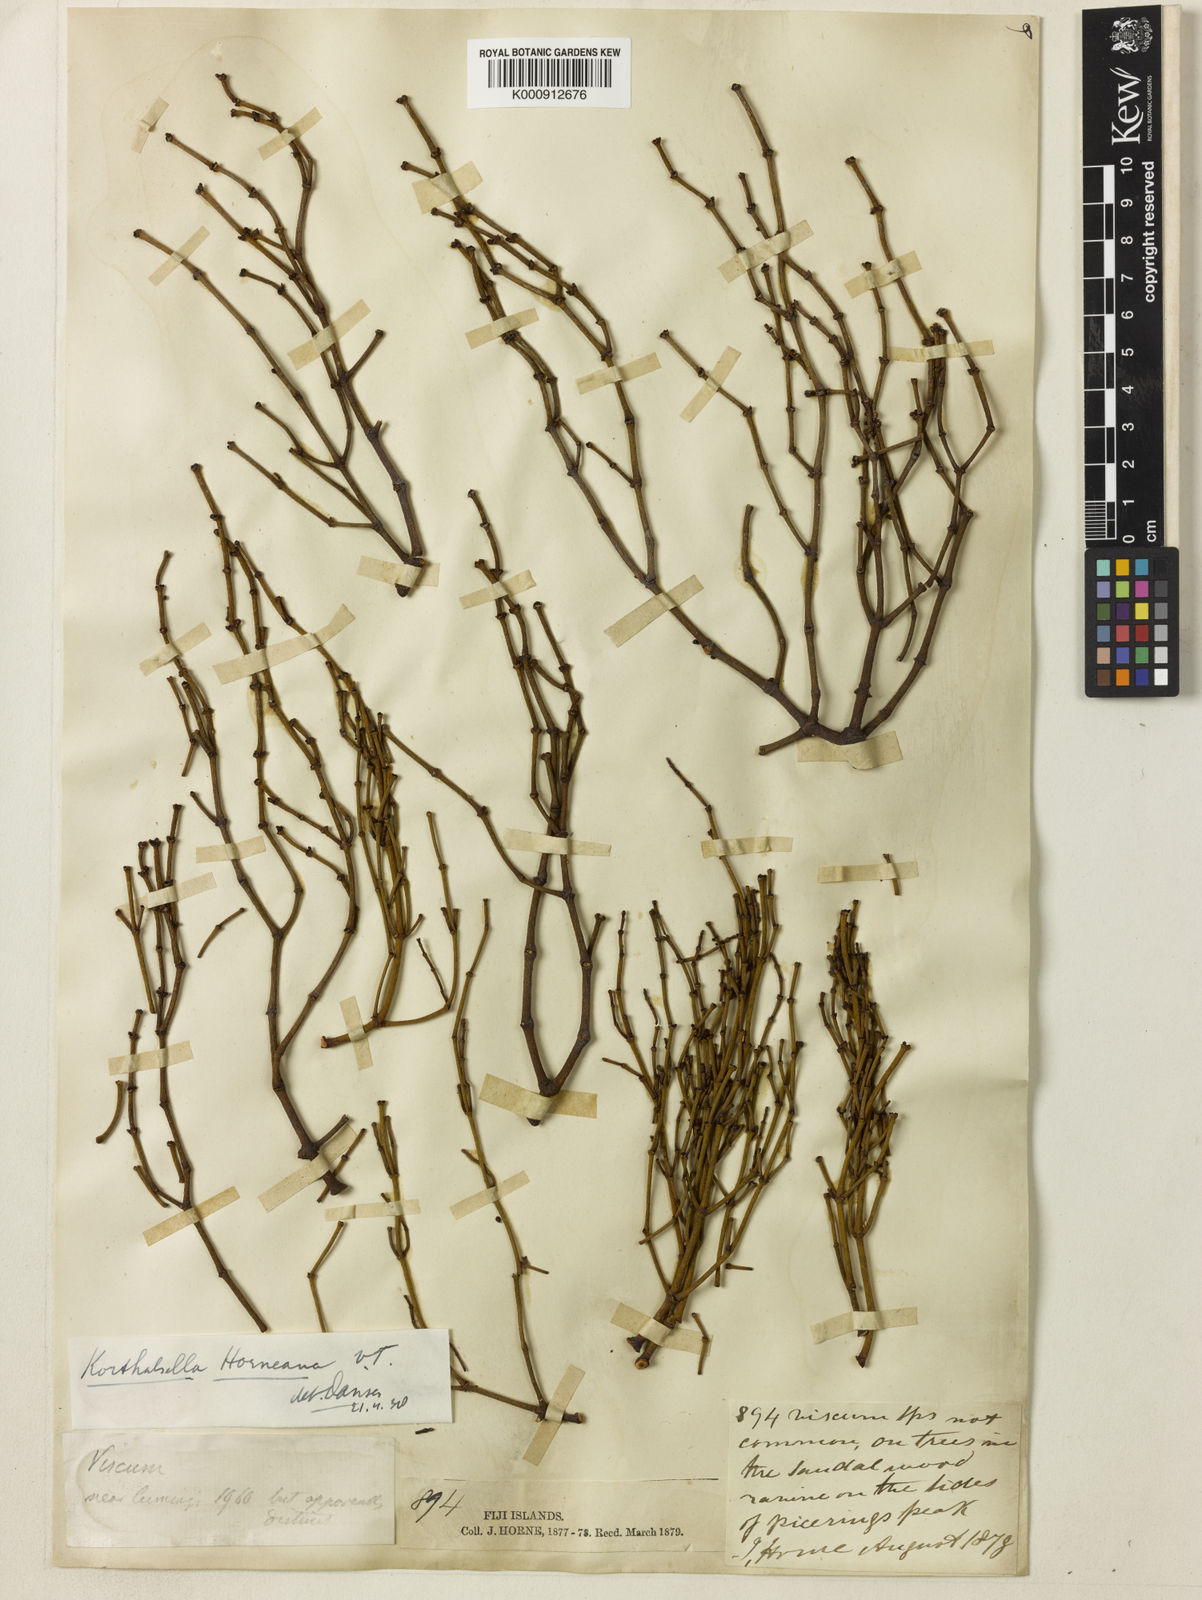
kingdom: Plantae
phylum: Tracheophyta
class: Magnoliopsida
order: Santalales
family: Viscaceae
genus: Korthalsella
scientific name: Korthalsella horneana
